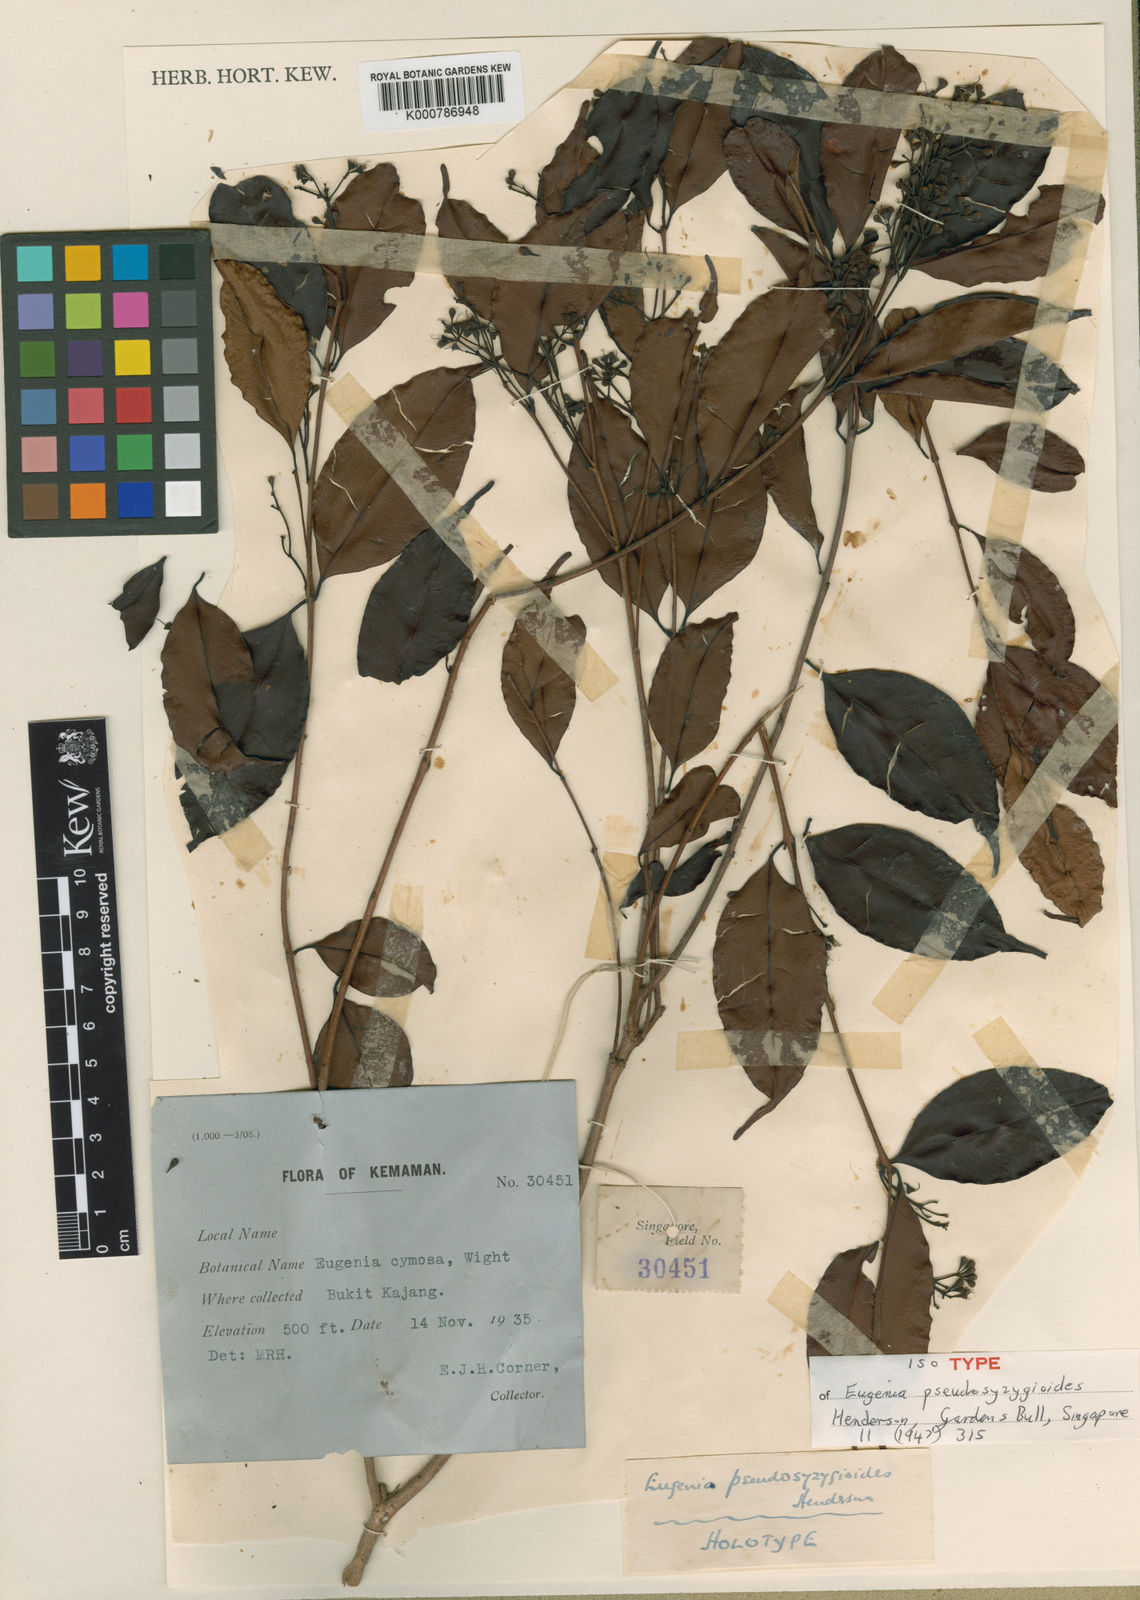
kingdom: Plantae
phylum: Tracheophyta
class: Magnoliopsida
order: Myrtales
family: Myrtaceae
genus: Syzygium
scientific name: Syzygium
